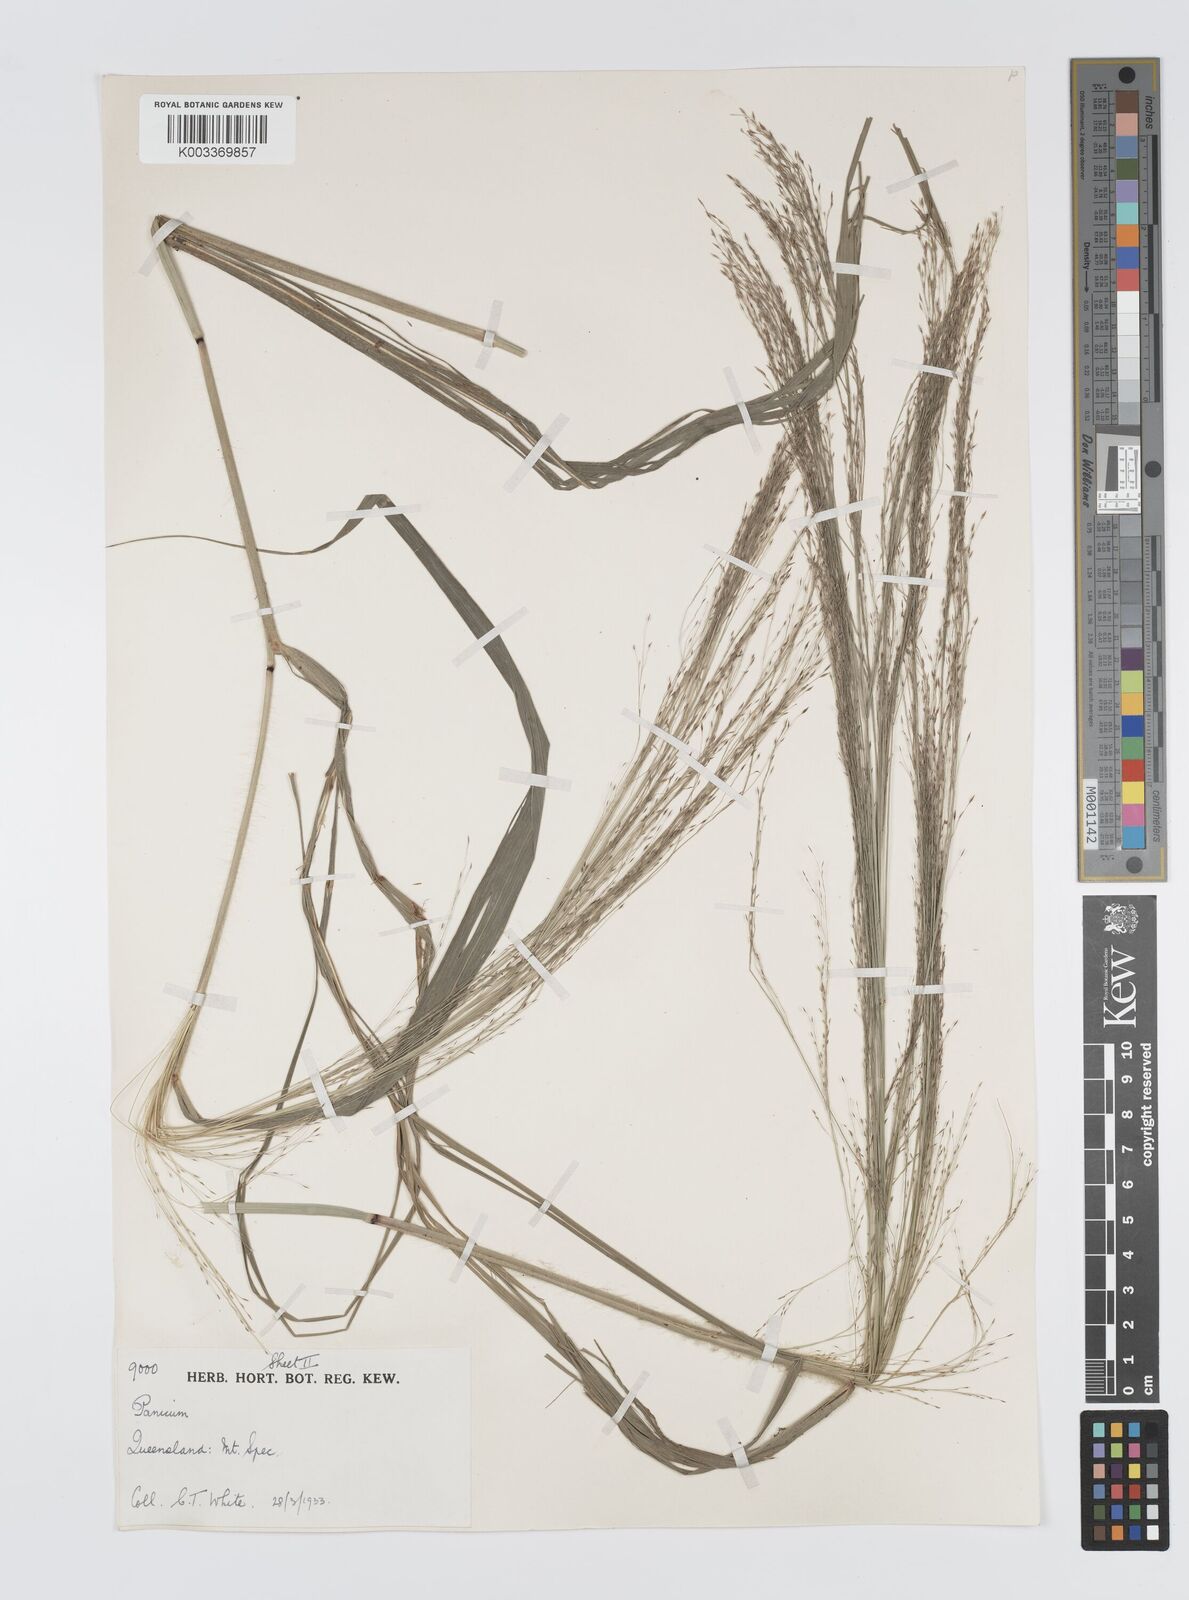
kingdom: Plantae
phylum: Tracheophyta
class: Liliopsida
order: Poales
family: Poaceae
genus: Panicum
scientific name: Panicum mitchellii
